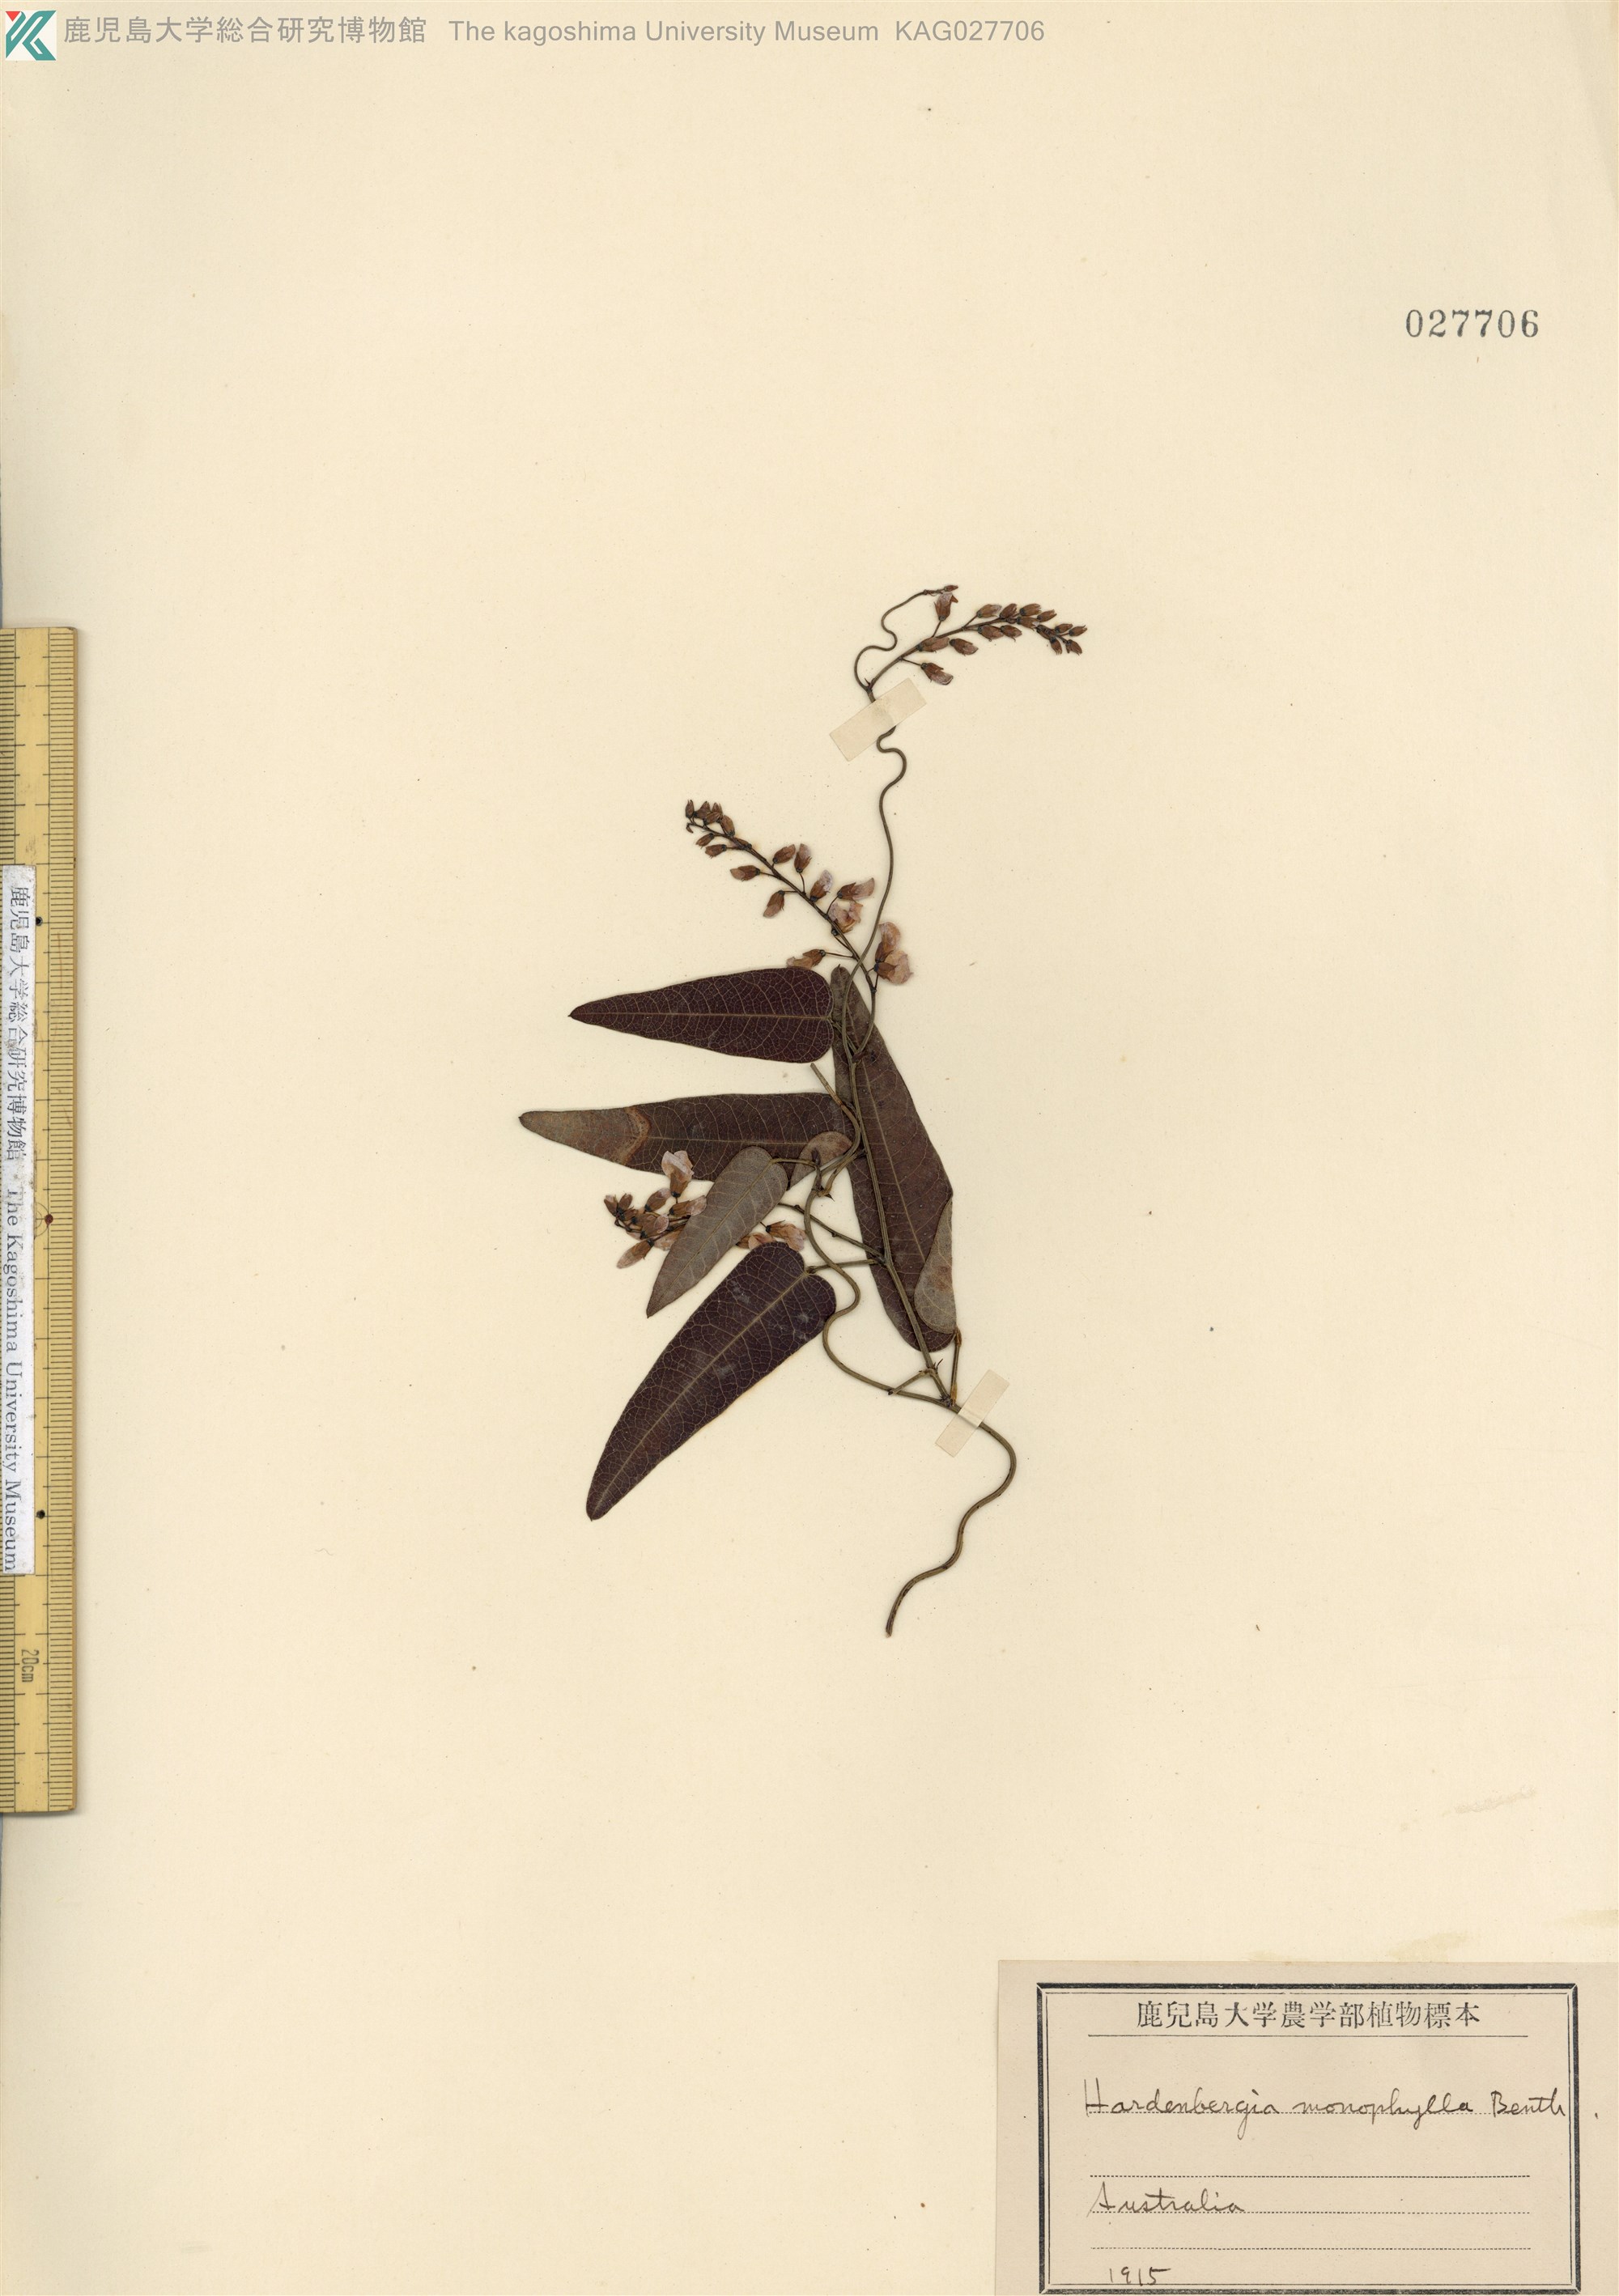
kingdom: Plantae
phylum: Tracheophyta
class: Magnoliopsida
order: Fabales
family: Fabaceae
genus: Hardenbergia
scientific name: Hardenbergia violacea
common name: Coral-pea
